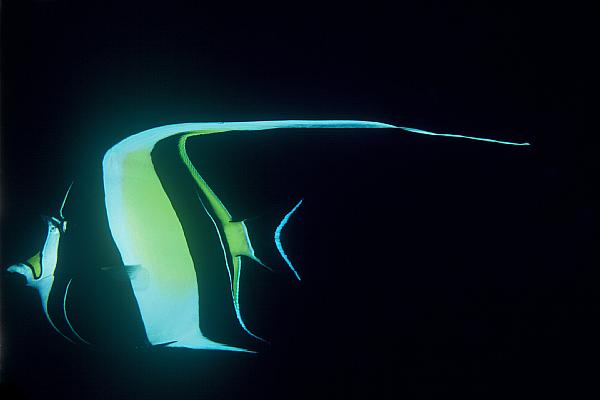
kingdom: Animalia
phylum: Chordata
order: Perciformes
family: Zanclidae
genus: Zanclus
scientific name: Zanclus cornutus
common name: Moorish idol
